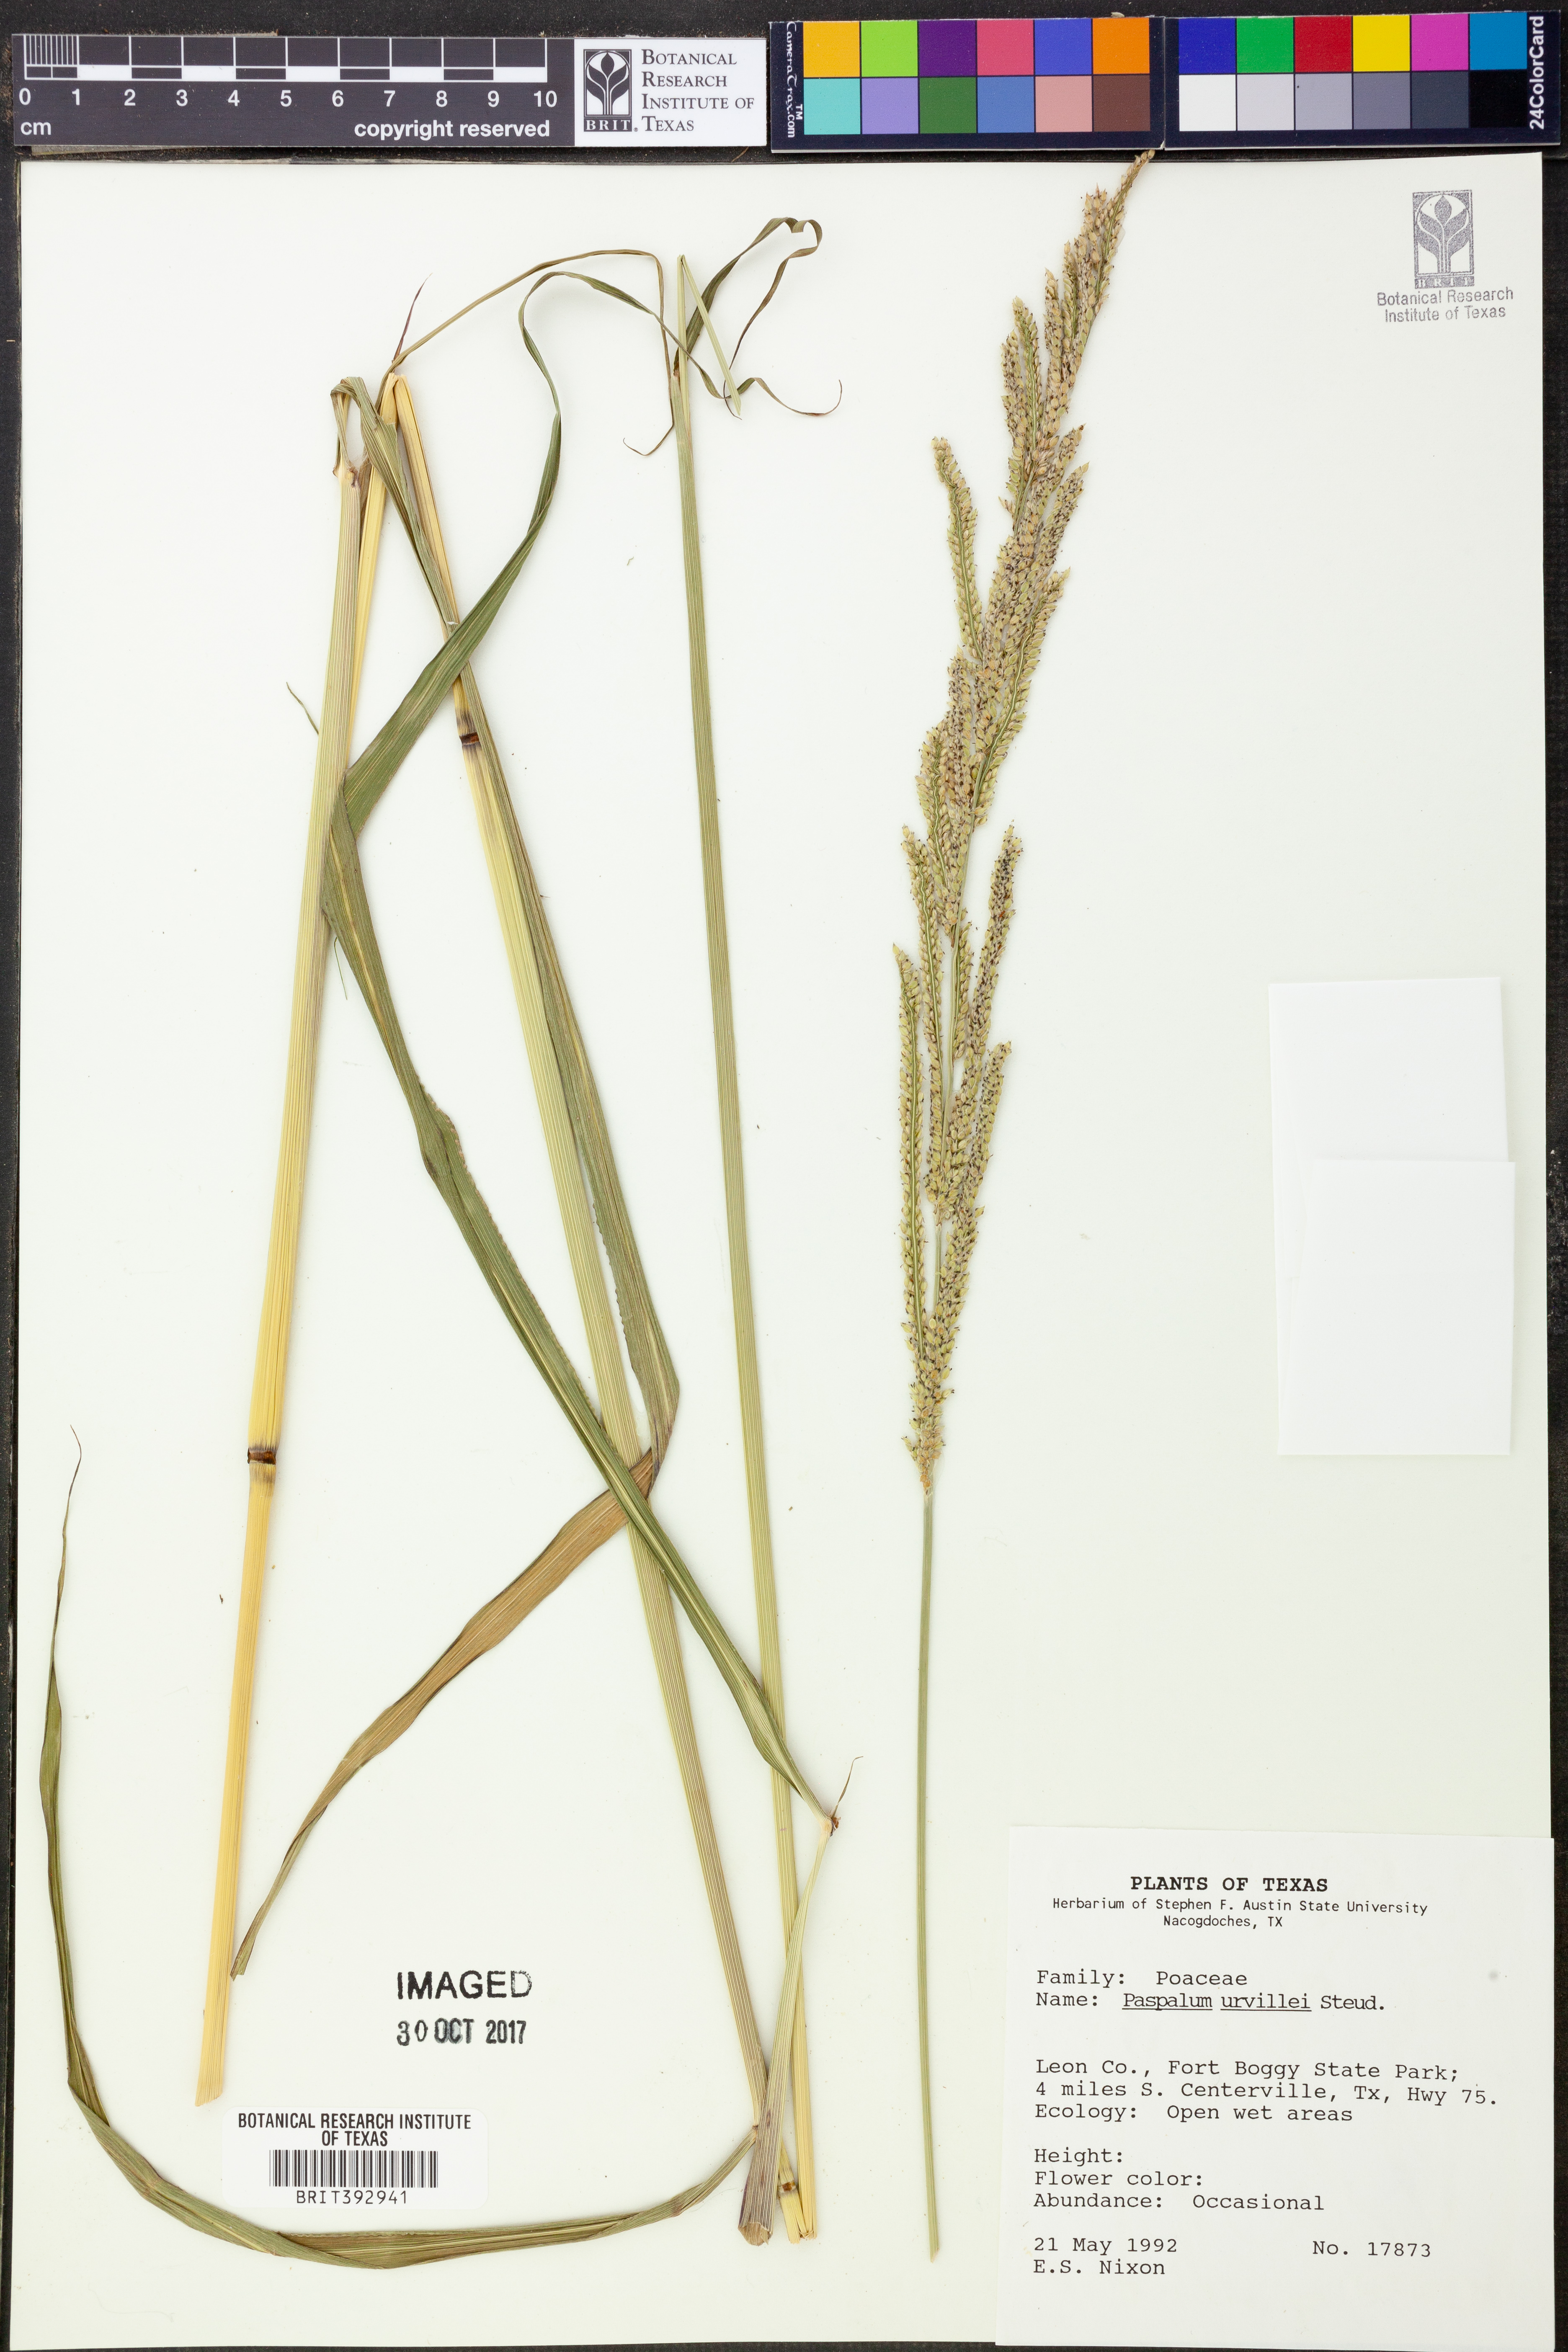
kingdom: Plantae
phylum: Tracheophyta
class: Liliopsida
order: Poales
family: Poaceae
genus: Paspalum
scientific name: Paspalum urvillei
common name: Vasey's grass
